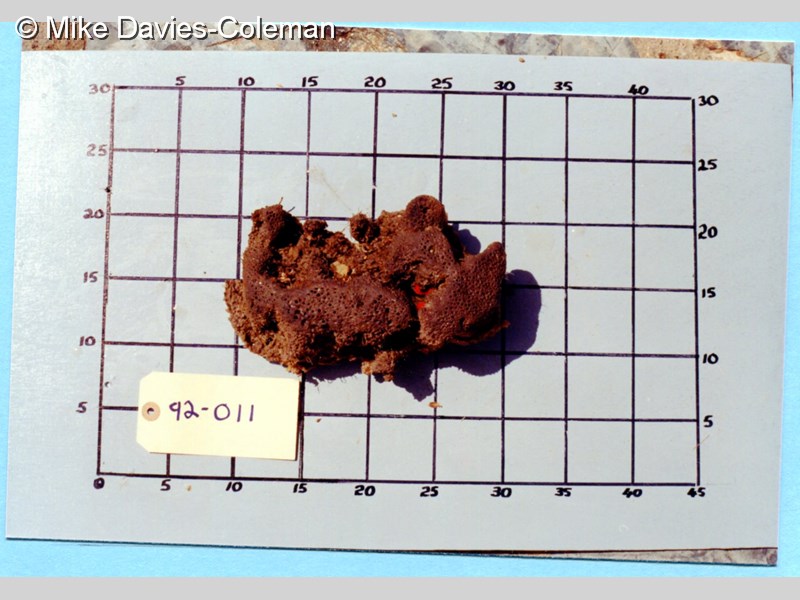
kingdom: Animalia
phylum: Porifera
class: Demospongiae
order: Poecilosclerida
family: Chondropsidae
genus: Chondropsis
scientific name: Chondropsis
